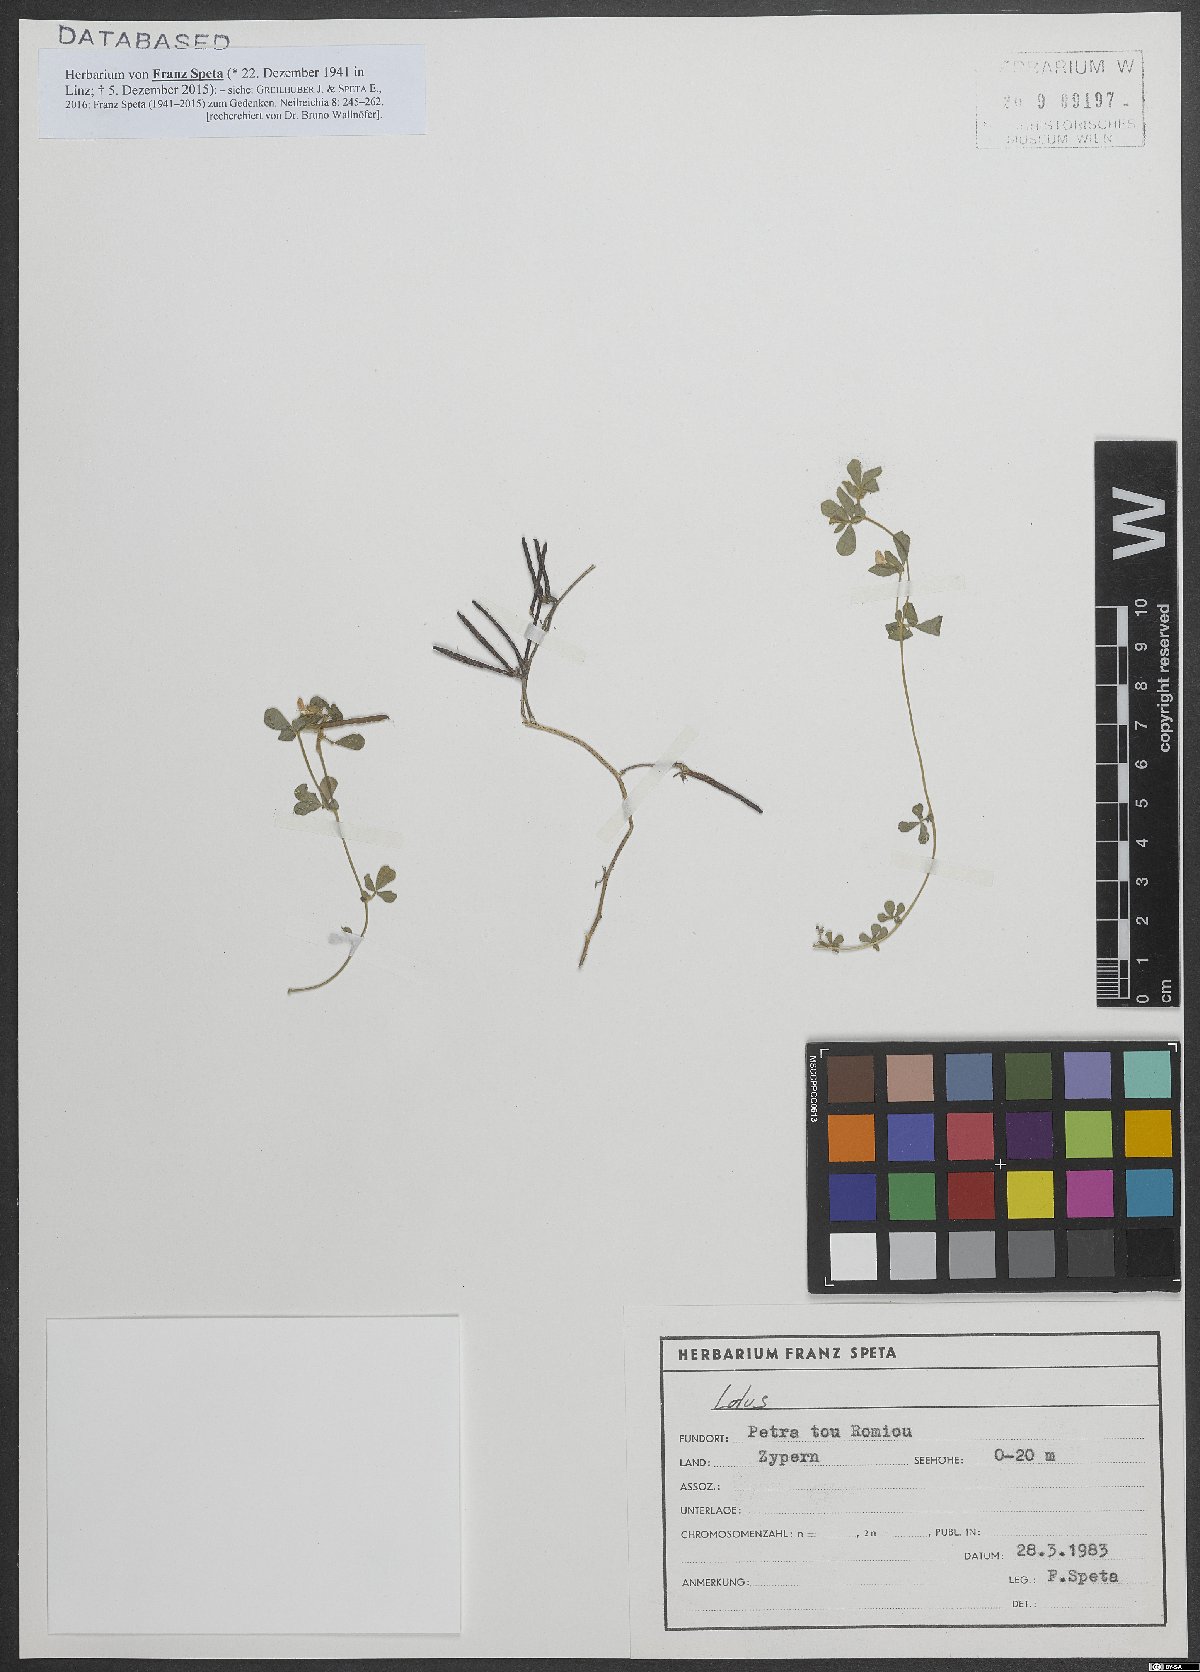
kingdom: Plantae
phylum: Tracheophyta
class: Magnoliopsida
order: Fabales
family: Fabaceae
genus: Lotus
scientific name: Lotus
